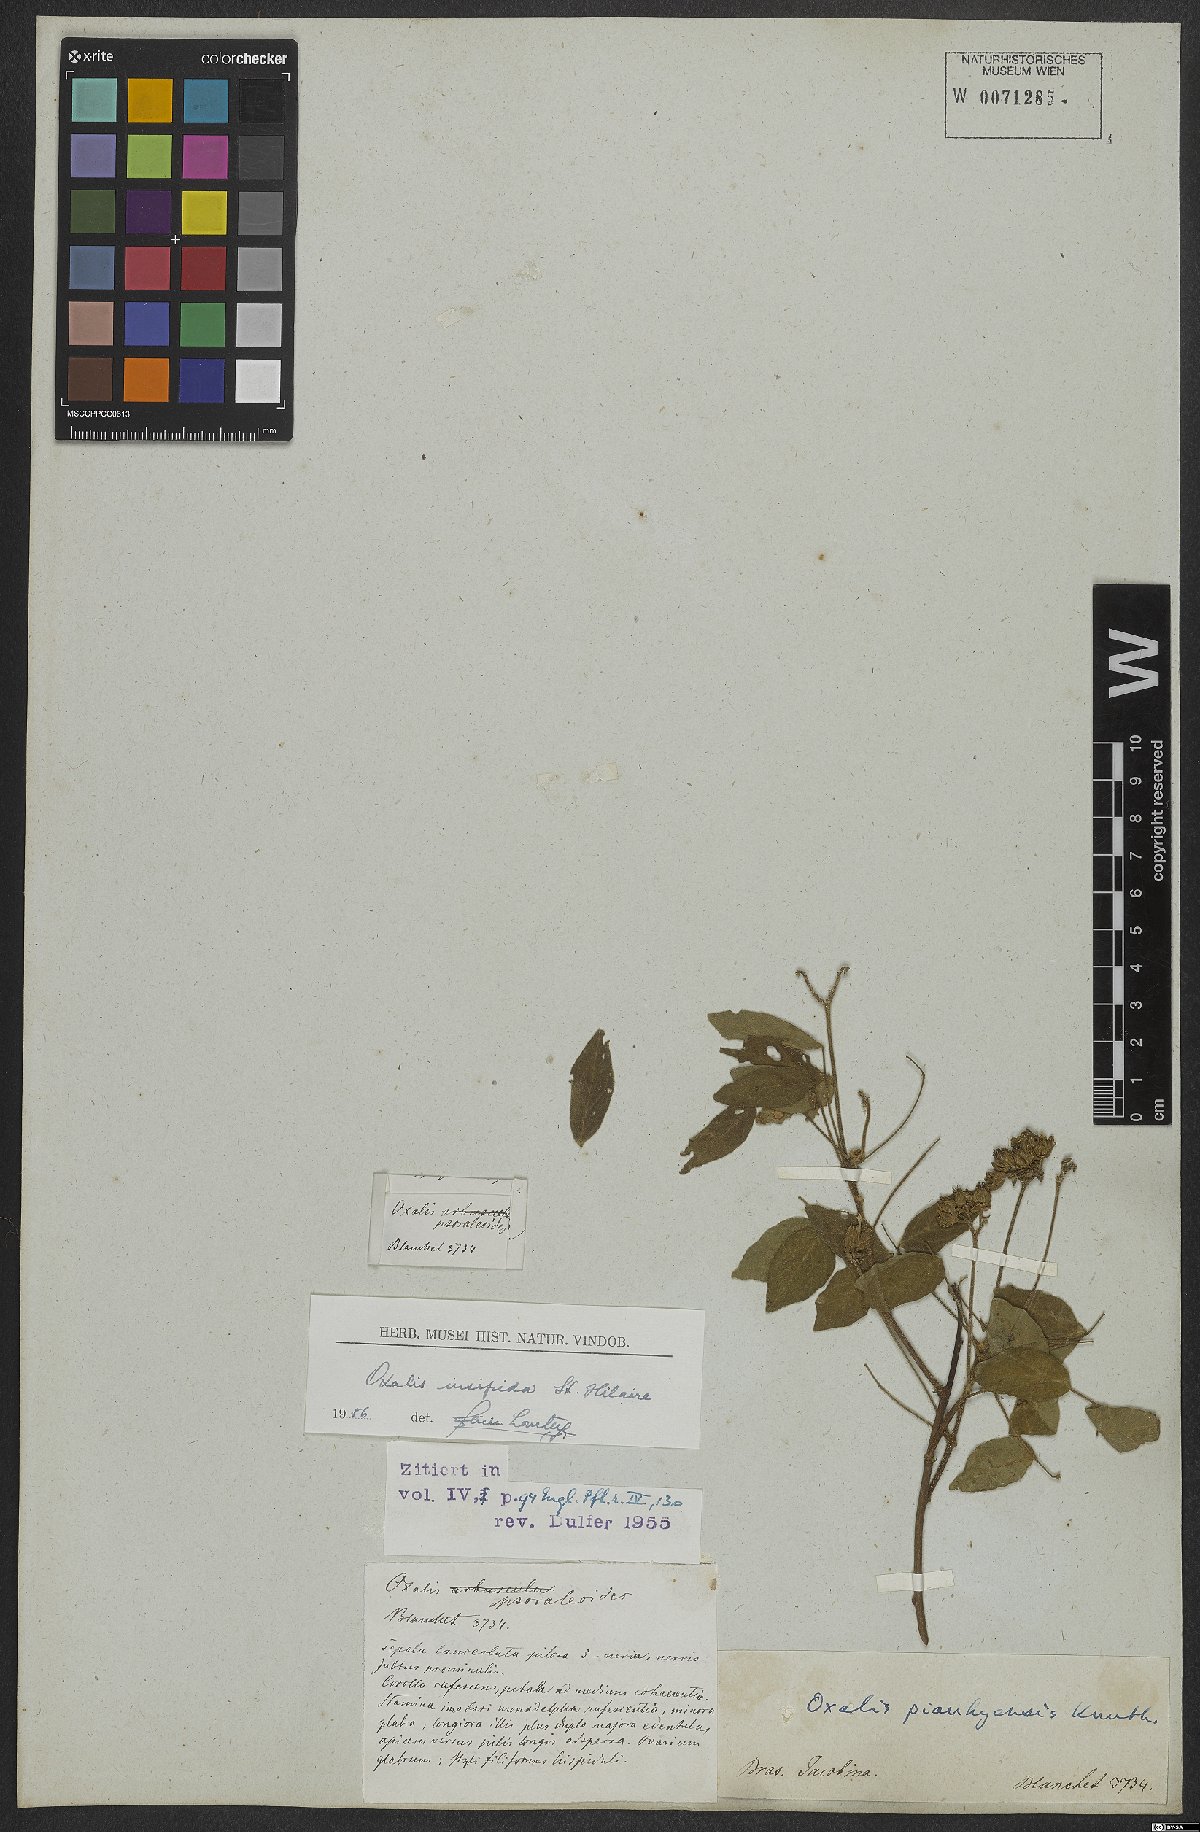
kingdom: Plantae
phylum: Tracheophyta
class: Magnoliopsida
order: Oxalidales
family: Oxalidaceae
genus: Oxalis
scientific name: Oxalis psoraleoides
